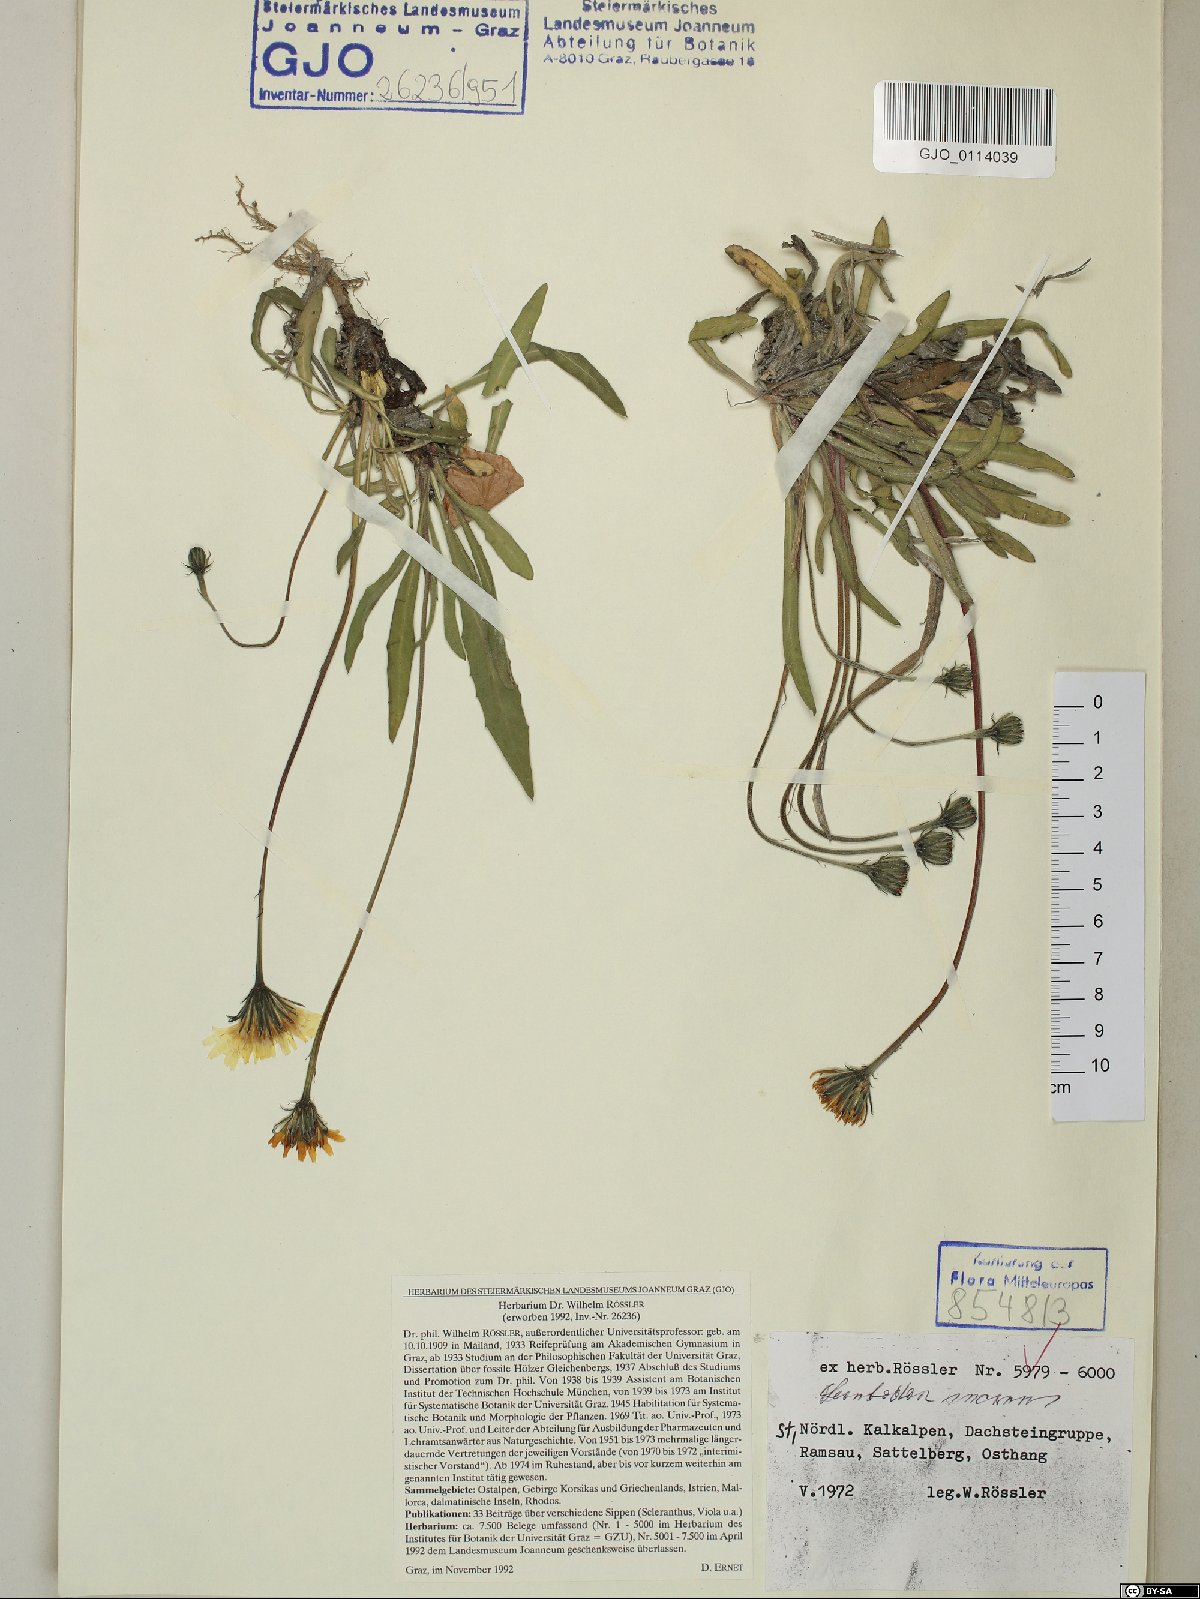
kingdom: Plantae
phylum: Tracheophyta
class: Magnoliopsida
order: Asterales
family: Asteraceae
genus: Leontodon
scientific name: Leontodon incanus
